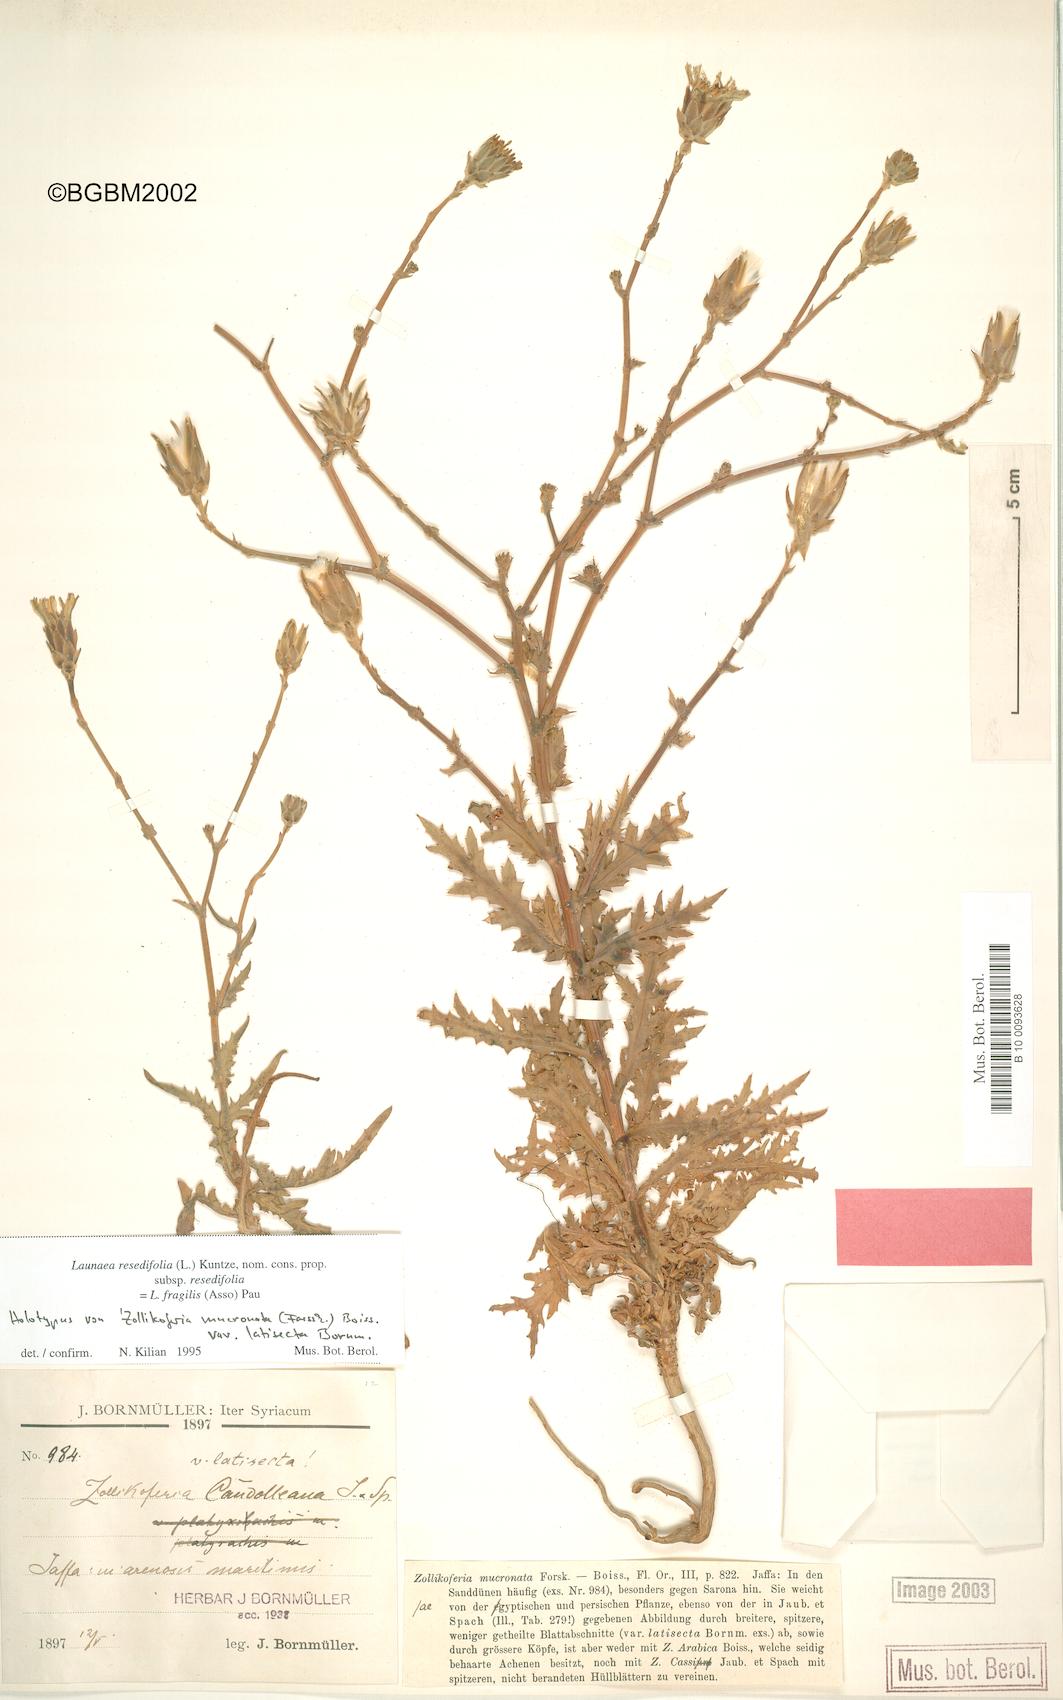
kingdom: Plantae
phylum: Tracheophyta
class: Magnoliopsida
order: Asterales
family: Asteraceae
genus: Launaea
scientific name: Launaea fragilis
